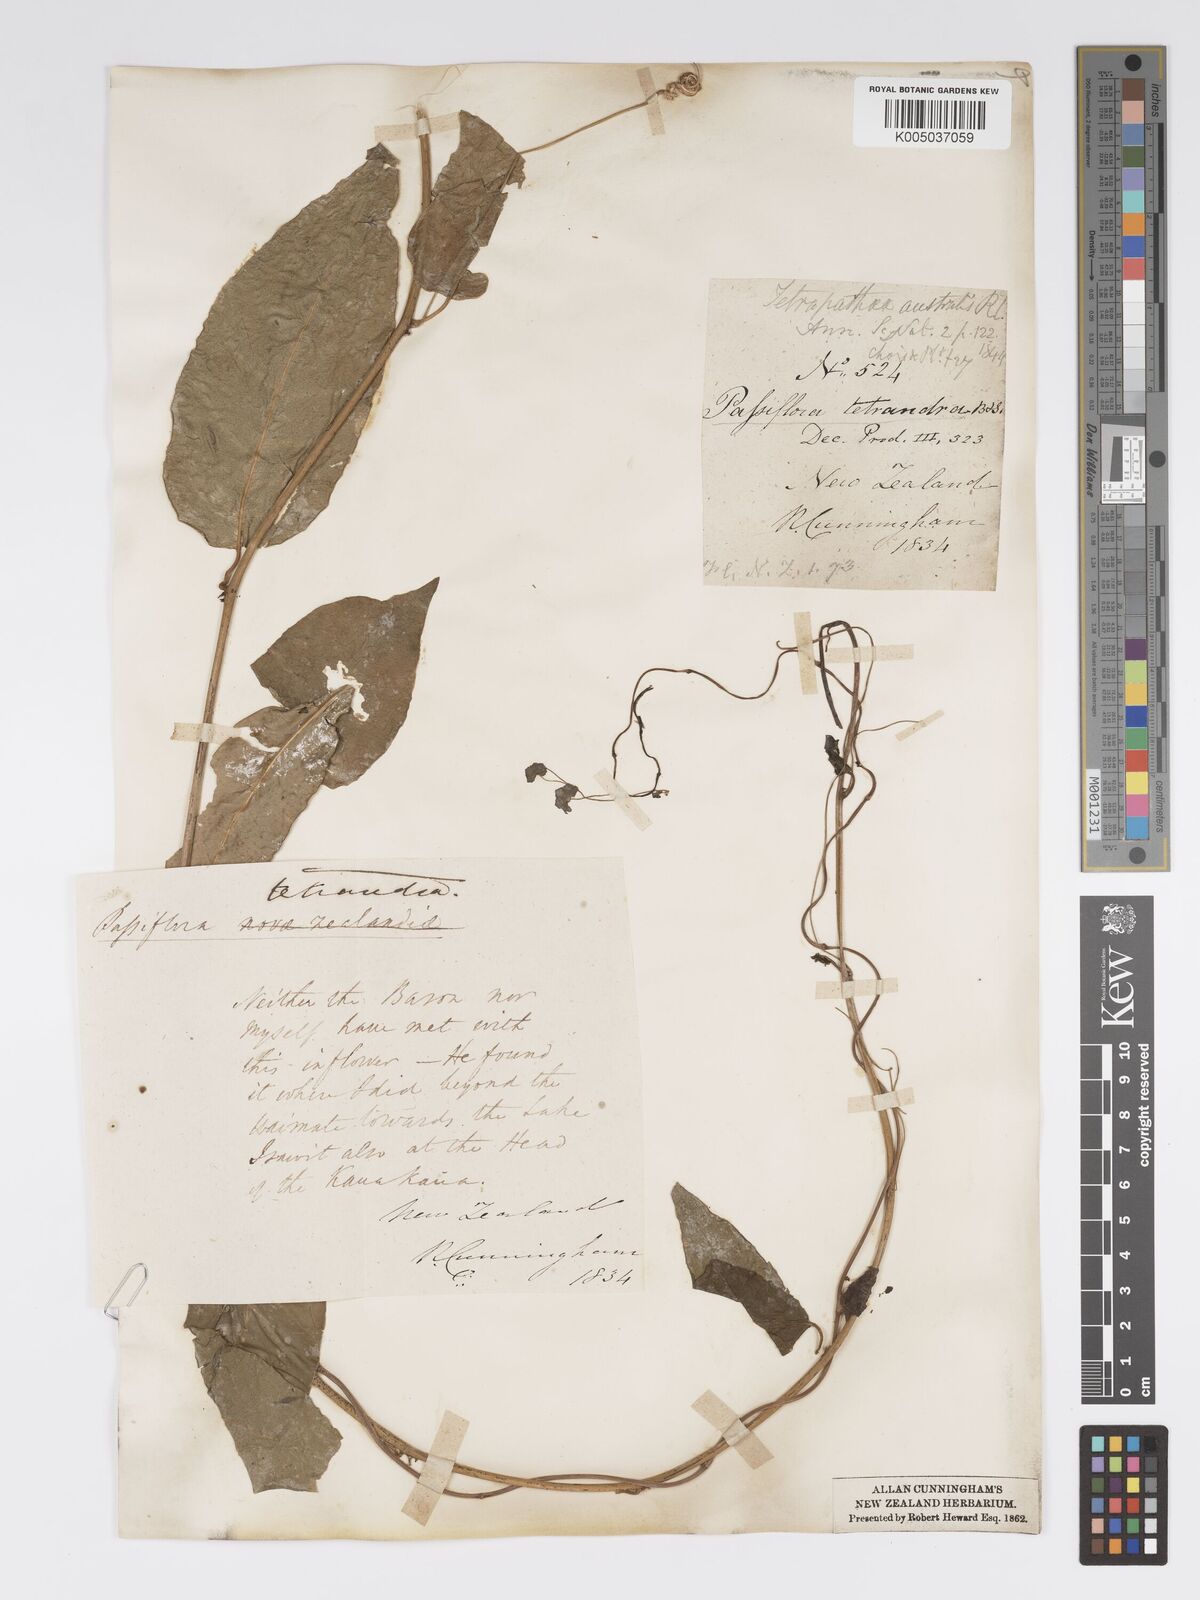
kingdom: Plantae
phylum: Tracheophyta
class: Magnoliopsida
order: Malpighiales
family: Passifloraceae
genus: Passiflora
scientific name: Passiflora tetrandra
